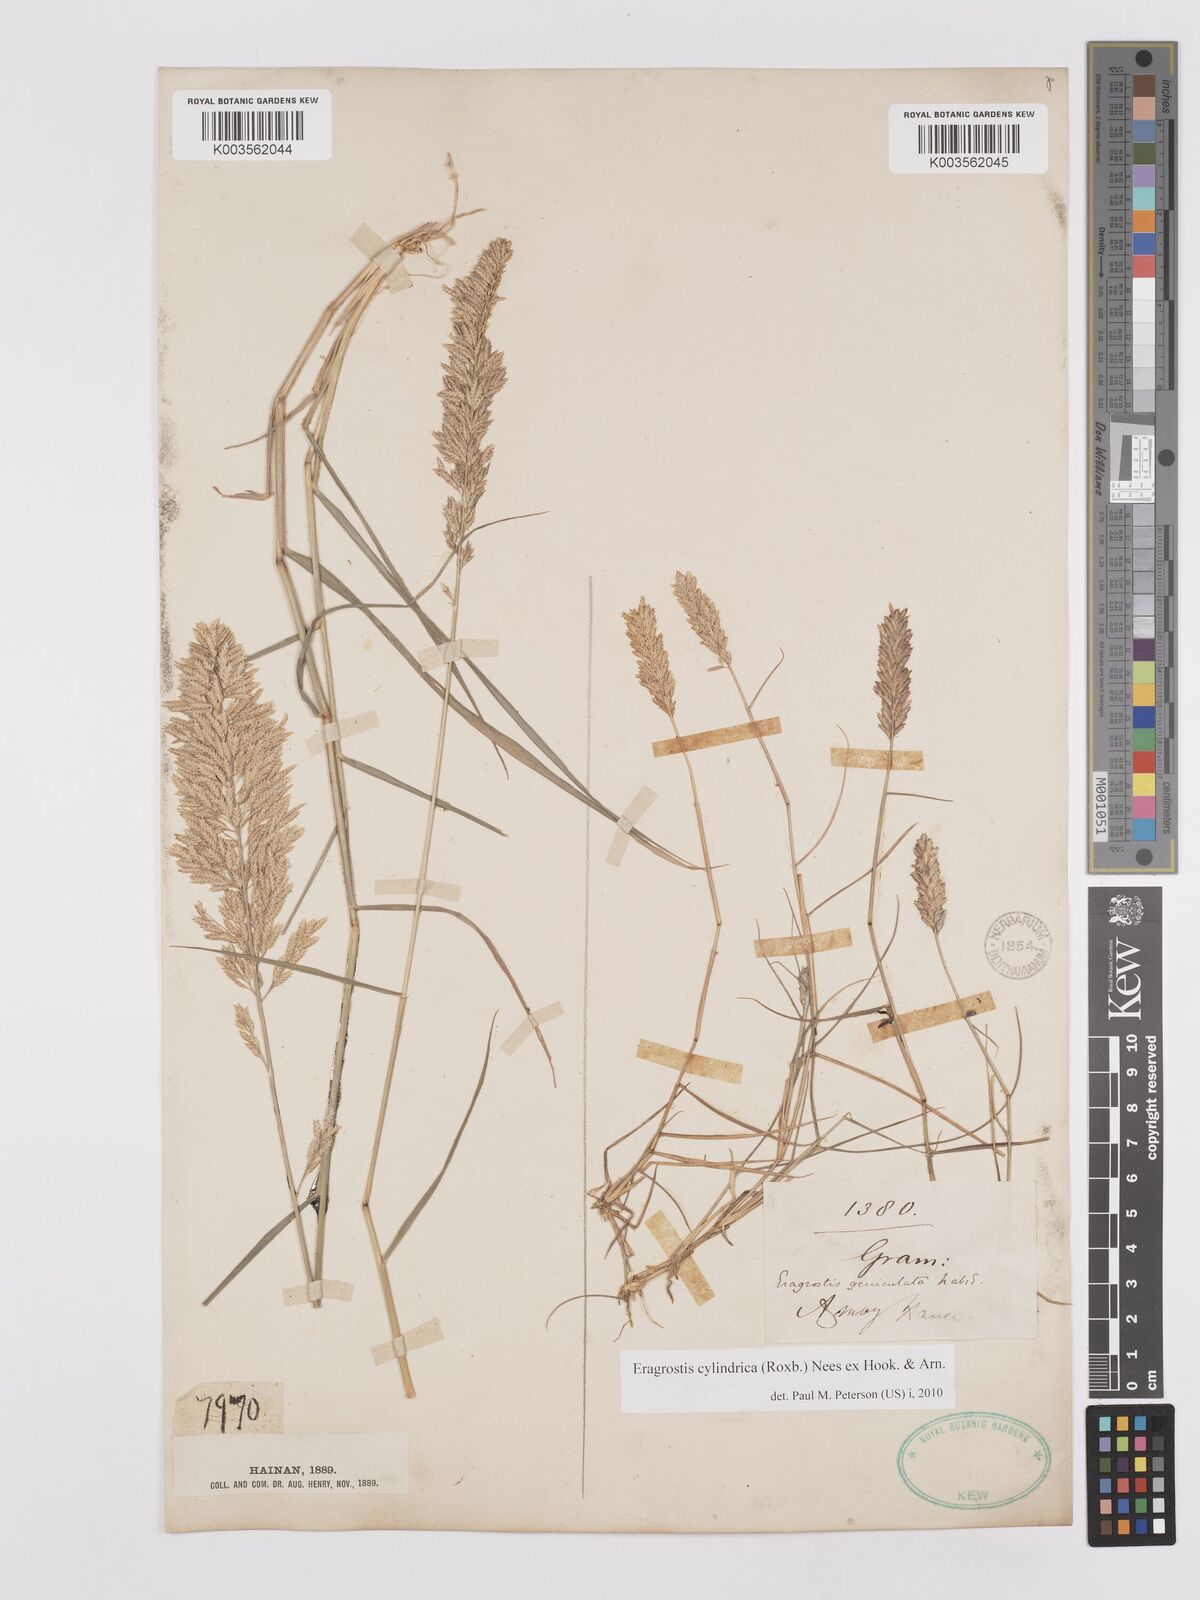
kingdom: Plantae
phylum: Tracheophyta
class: Liliopsida
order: Poales
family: Poaceae
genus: Eragrostis
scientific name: Eragrostis cylindrica
